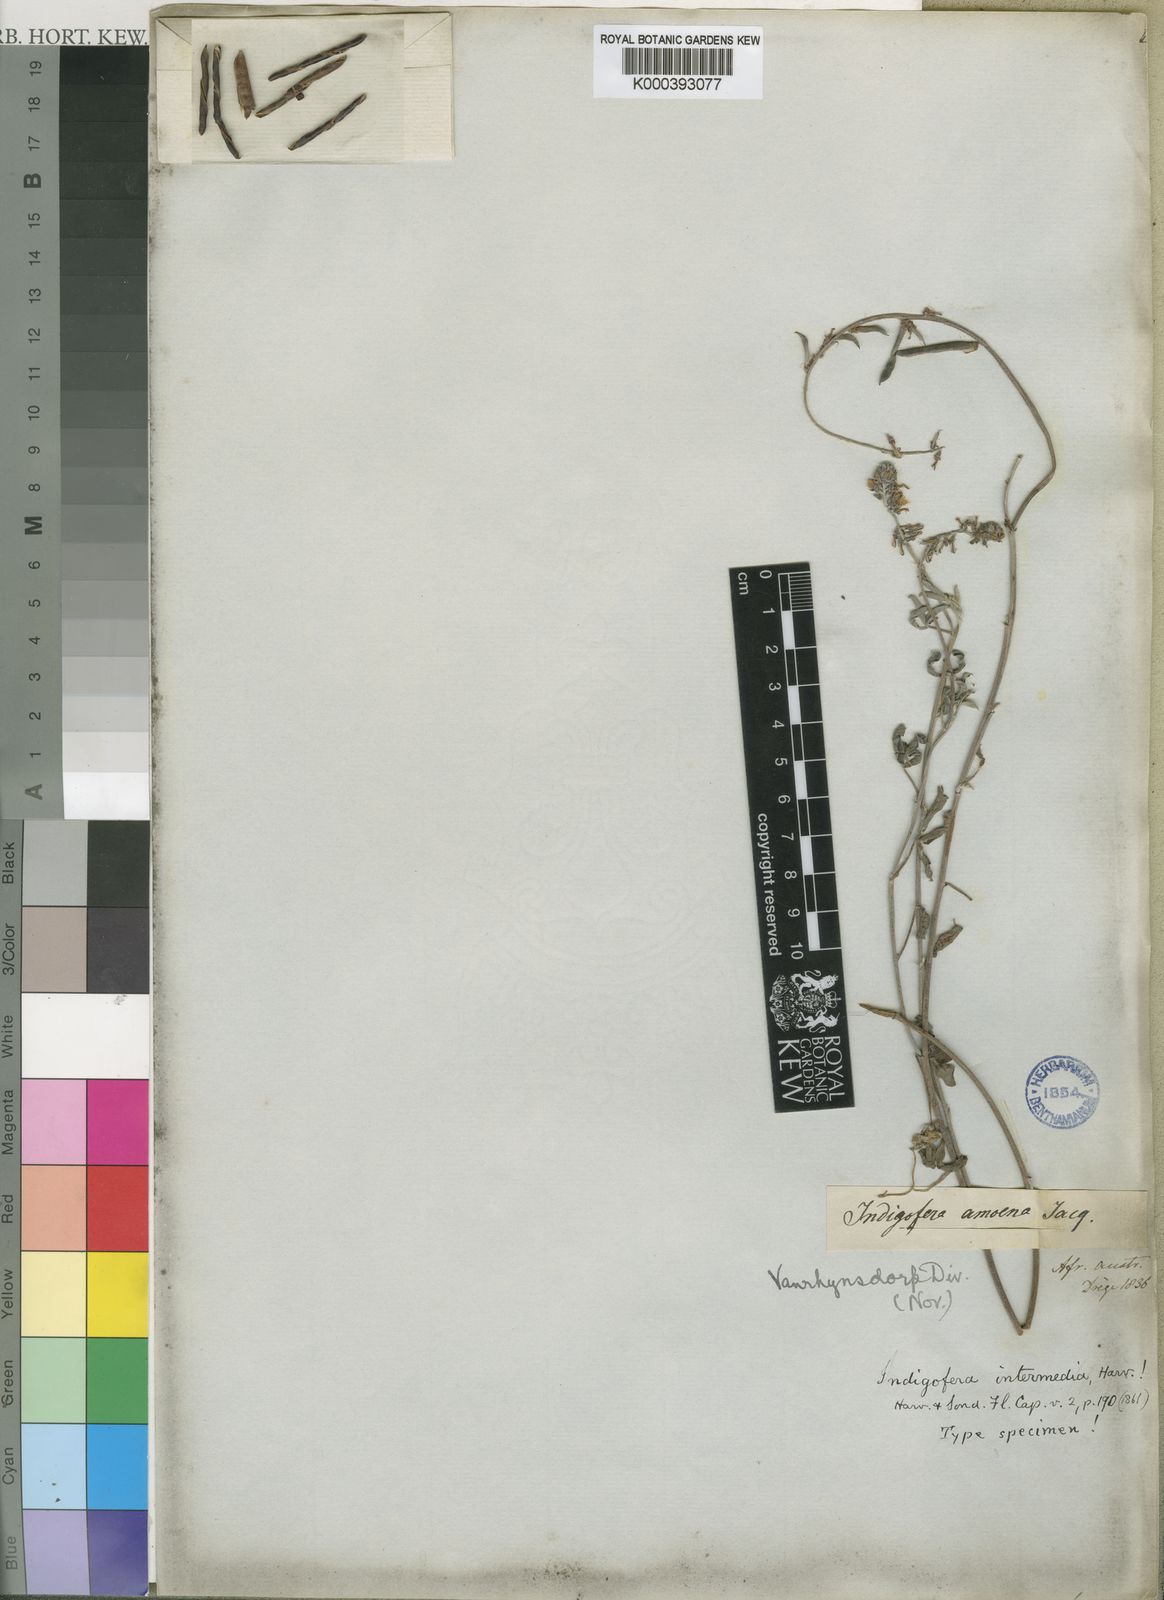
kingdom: Plantae
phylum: Tracheophyta
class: Magnoliopsida
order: Fabales
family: Fabaceae
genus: Indigofera
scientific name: Indigofera intermedia
